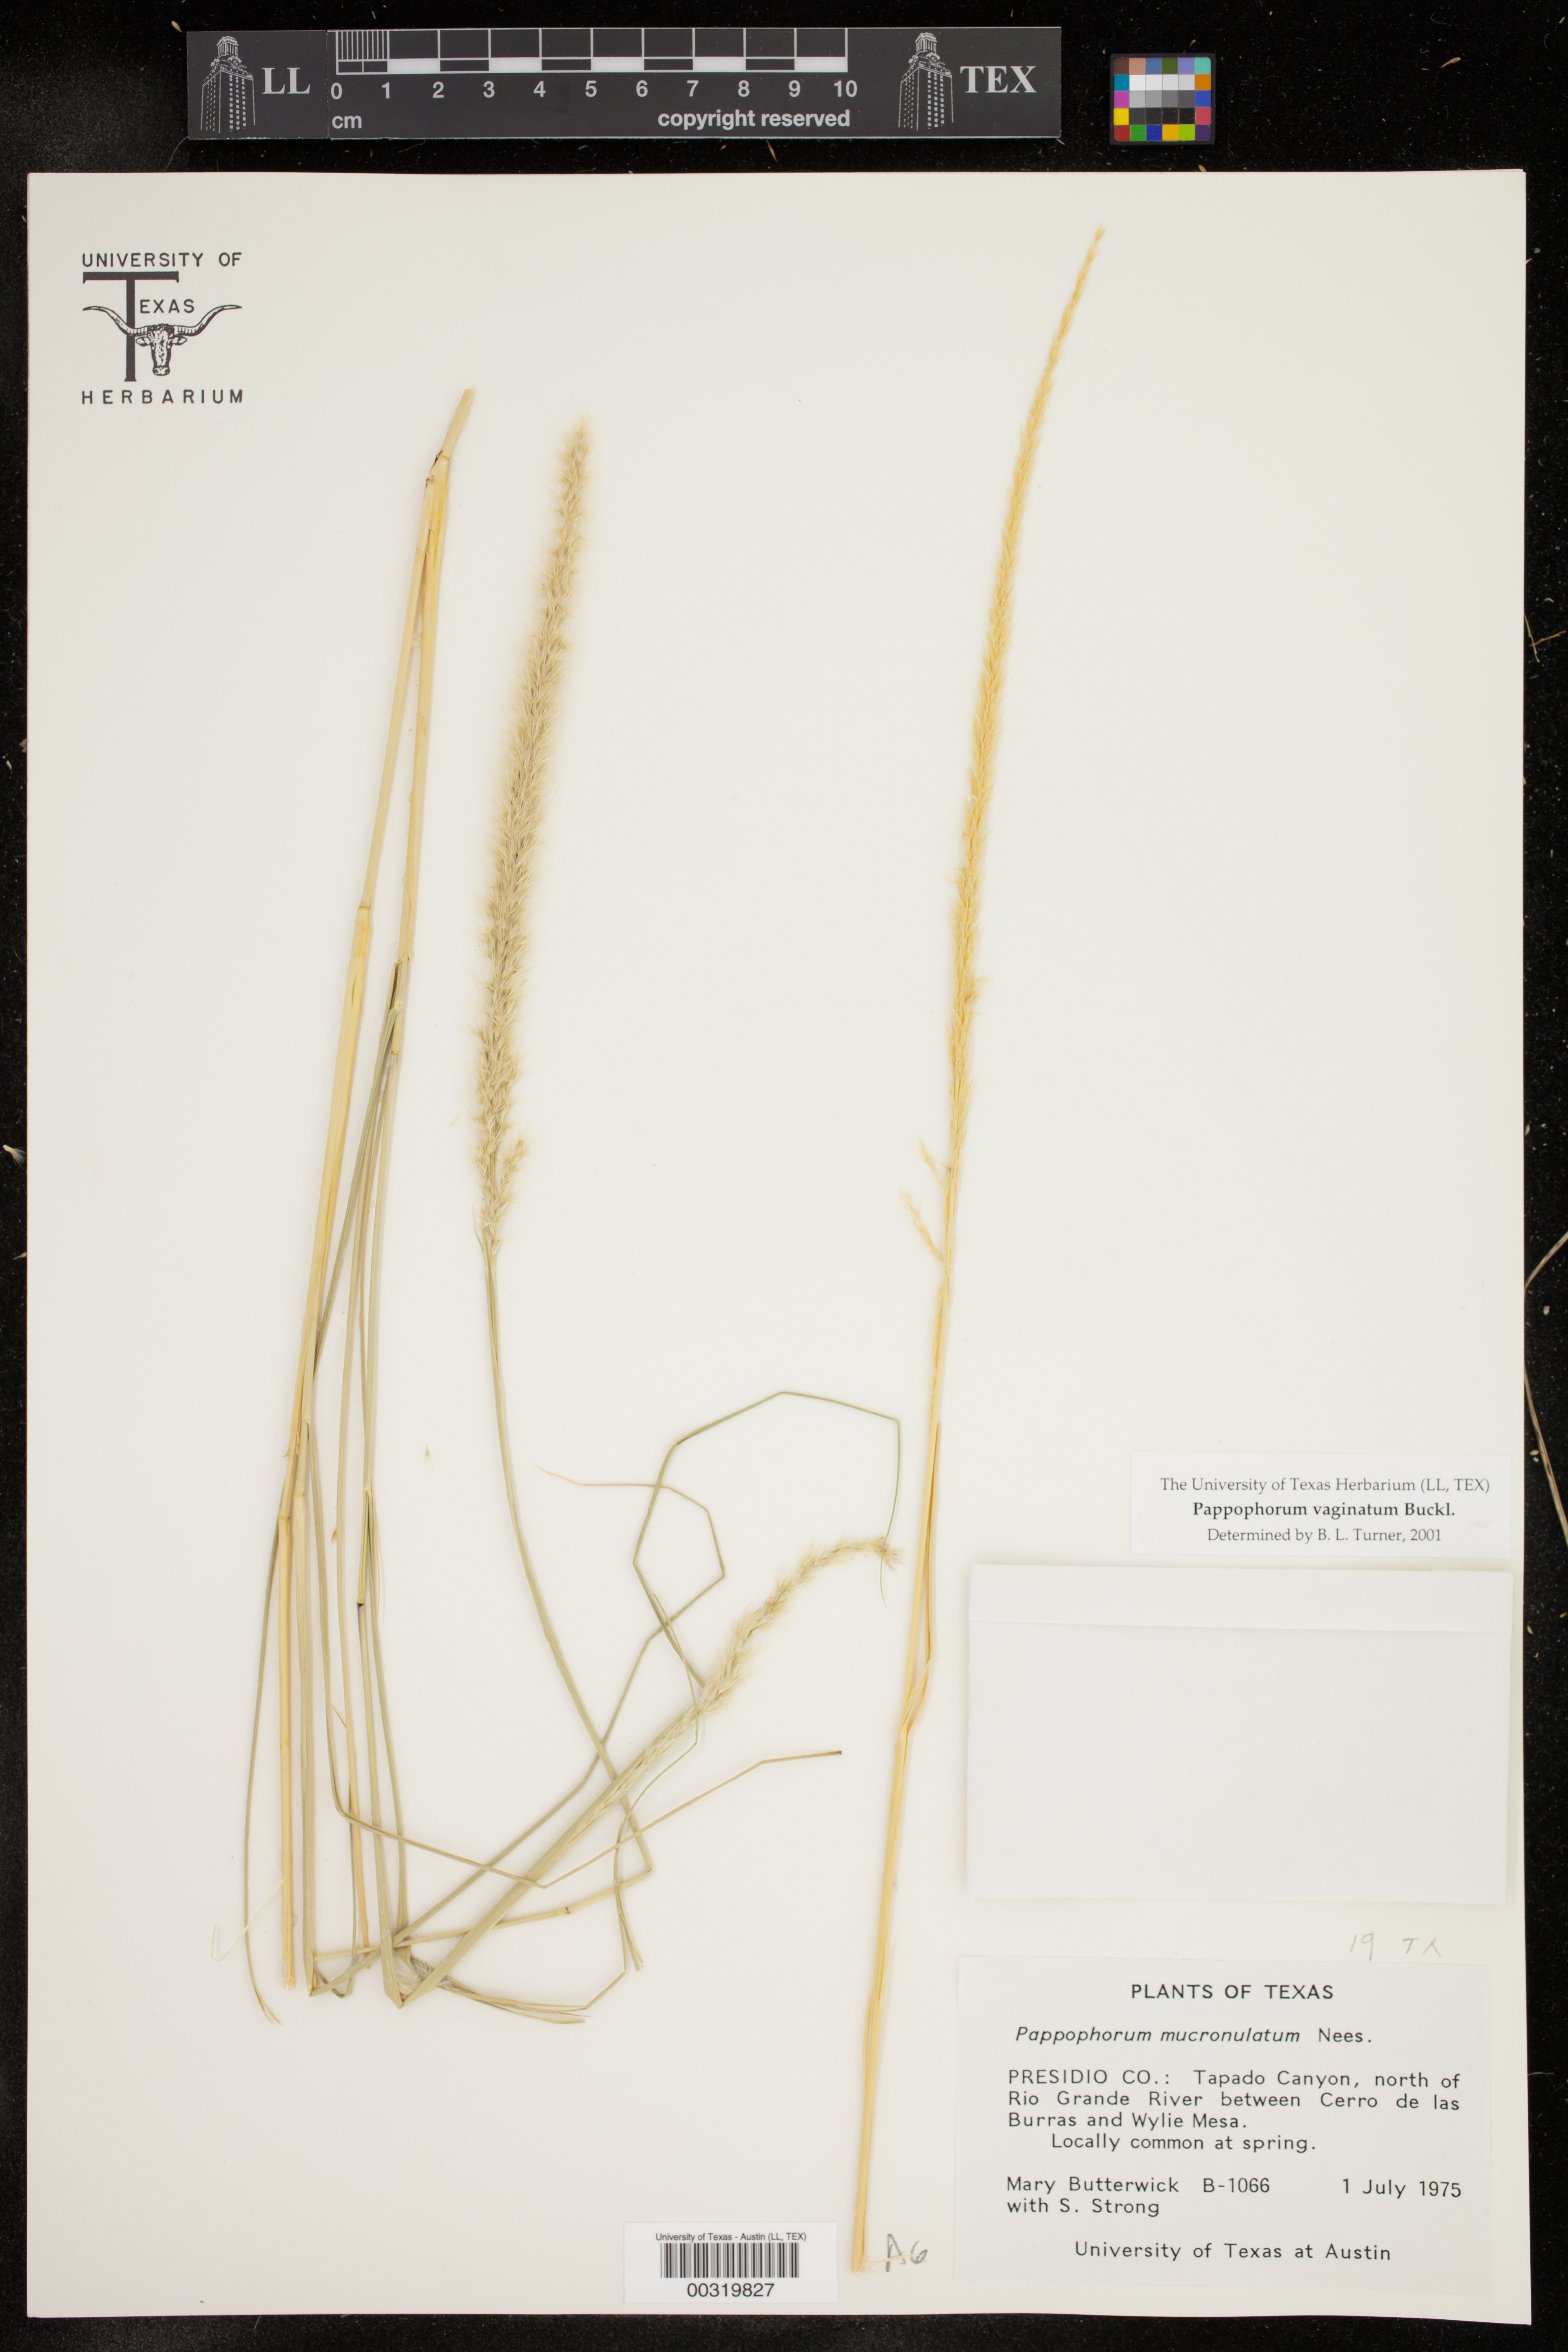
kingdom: Plantae
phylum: Tracheophyta
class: Liliopsida
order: Poales
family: Poaceae
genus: Pappophorum
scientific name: Pappophorum
